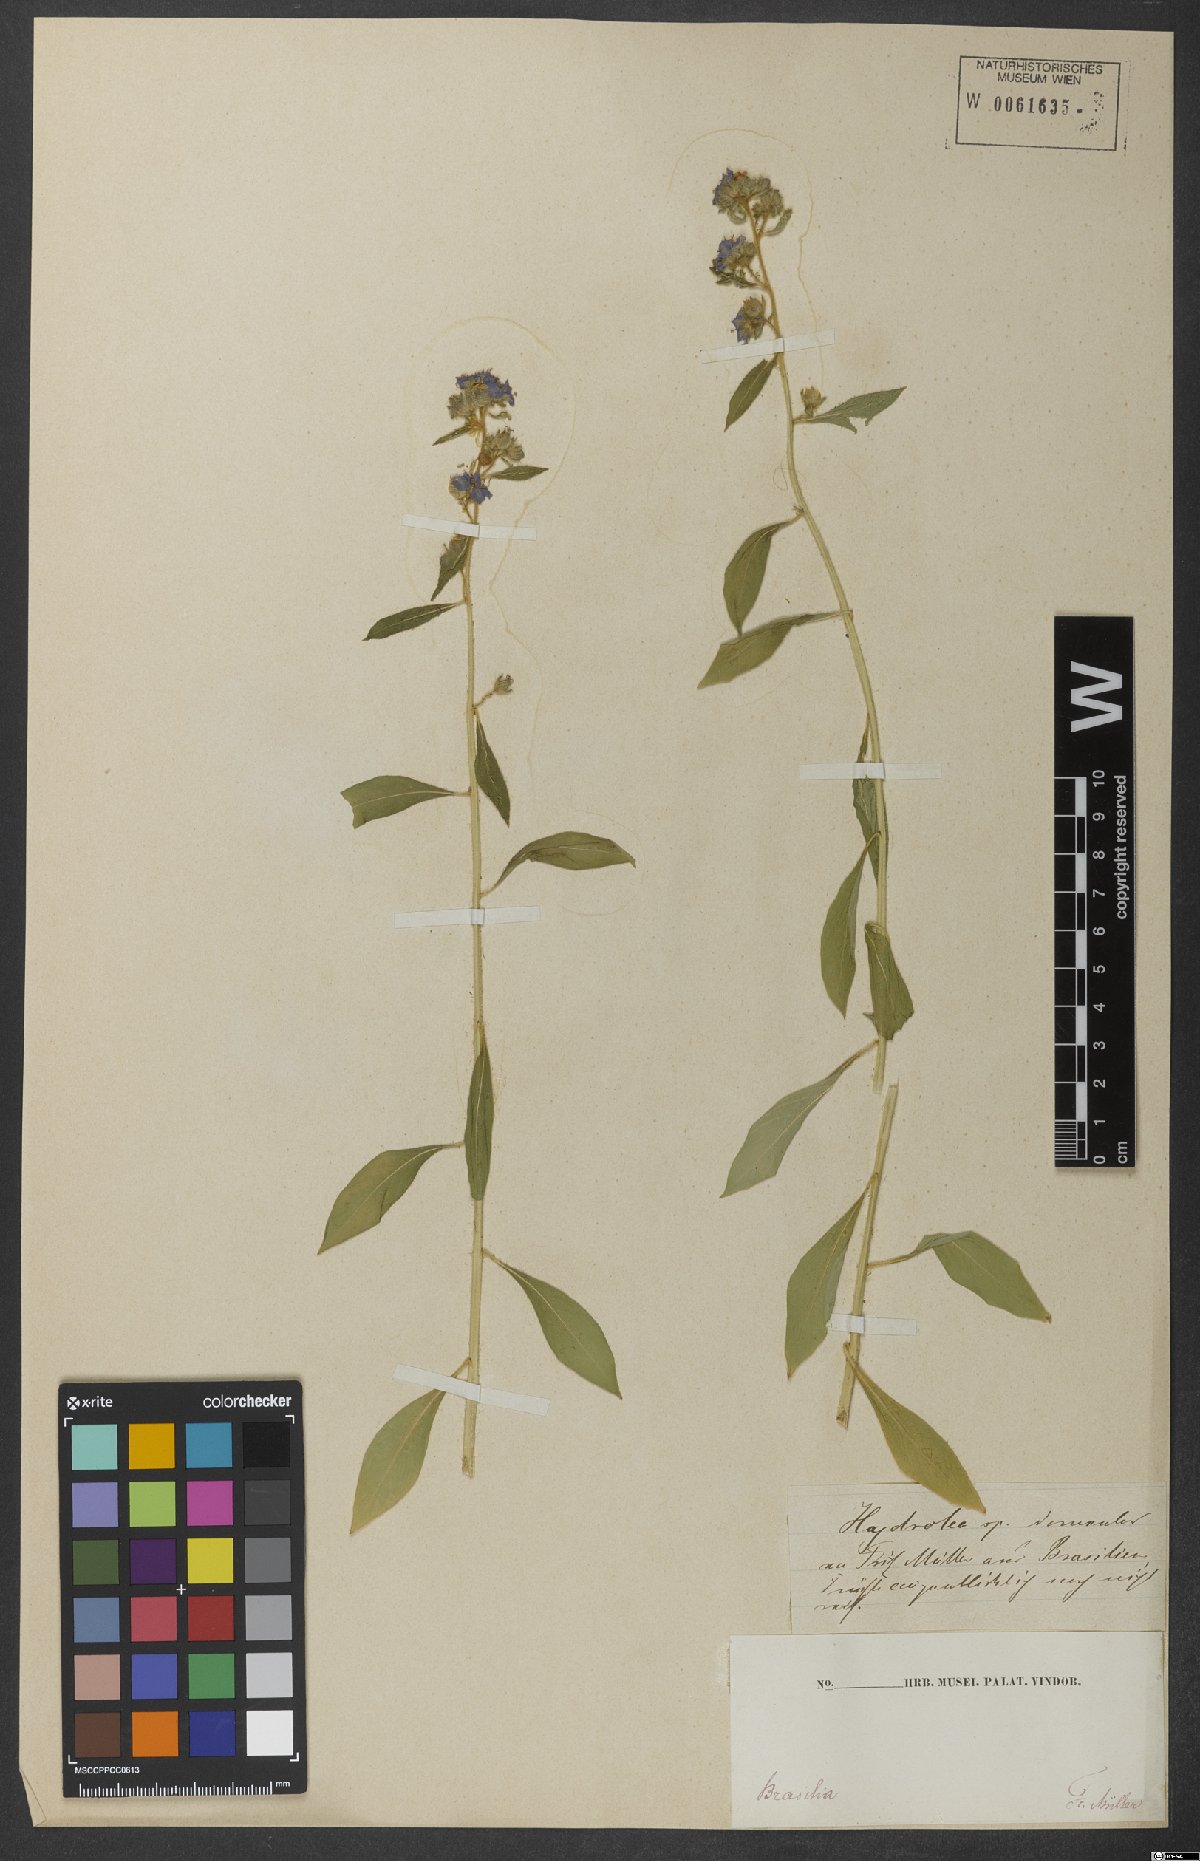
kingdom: Plantae
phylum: Tracheophyta
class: Magnoliopsida
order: Solanales
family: Hydroleaceae
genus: Hydrolea
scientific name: Hydrolea spinosa
